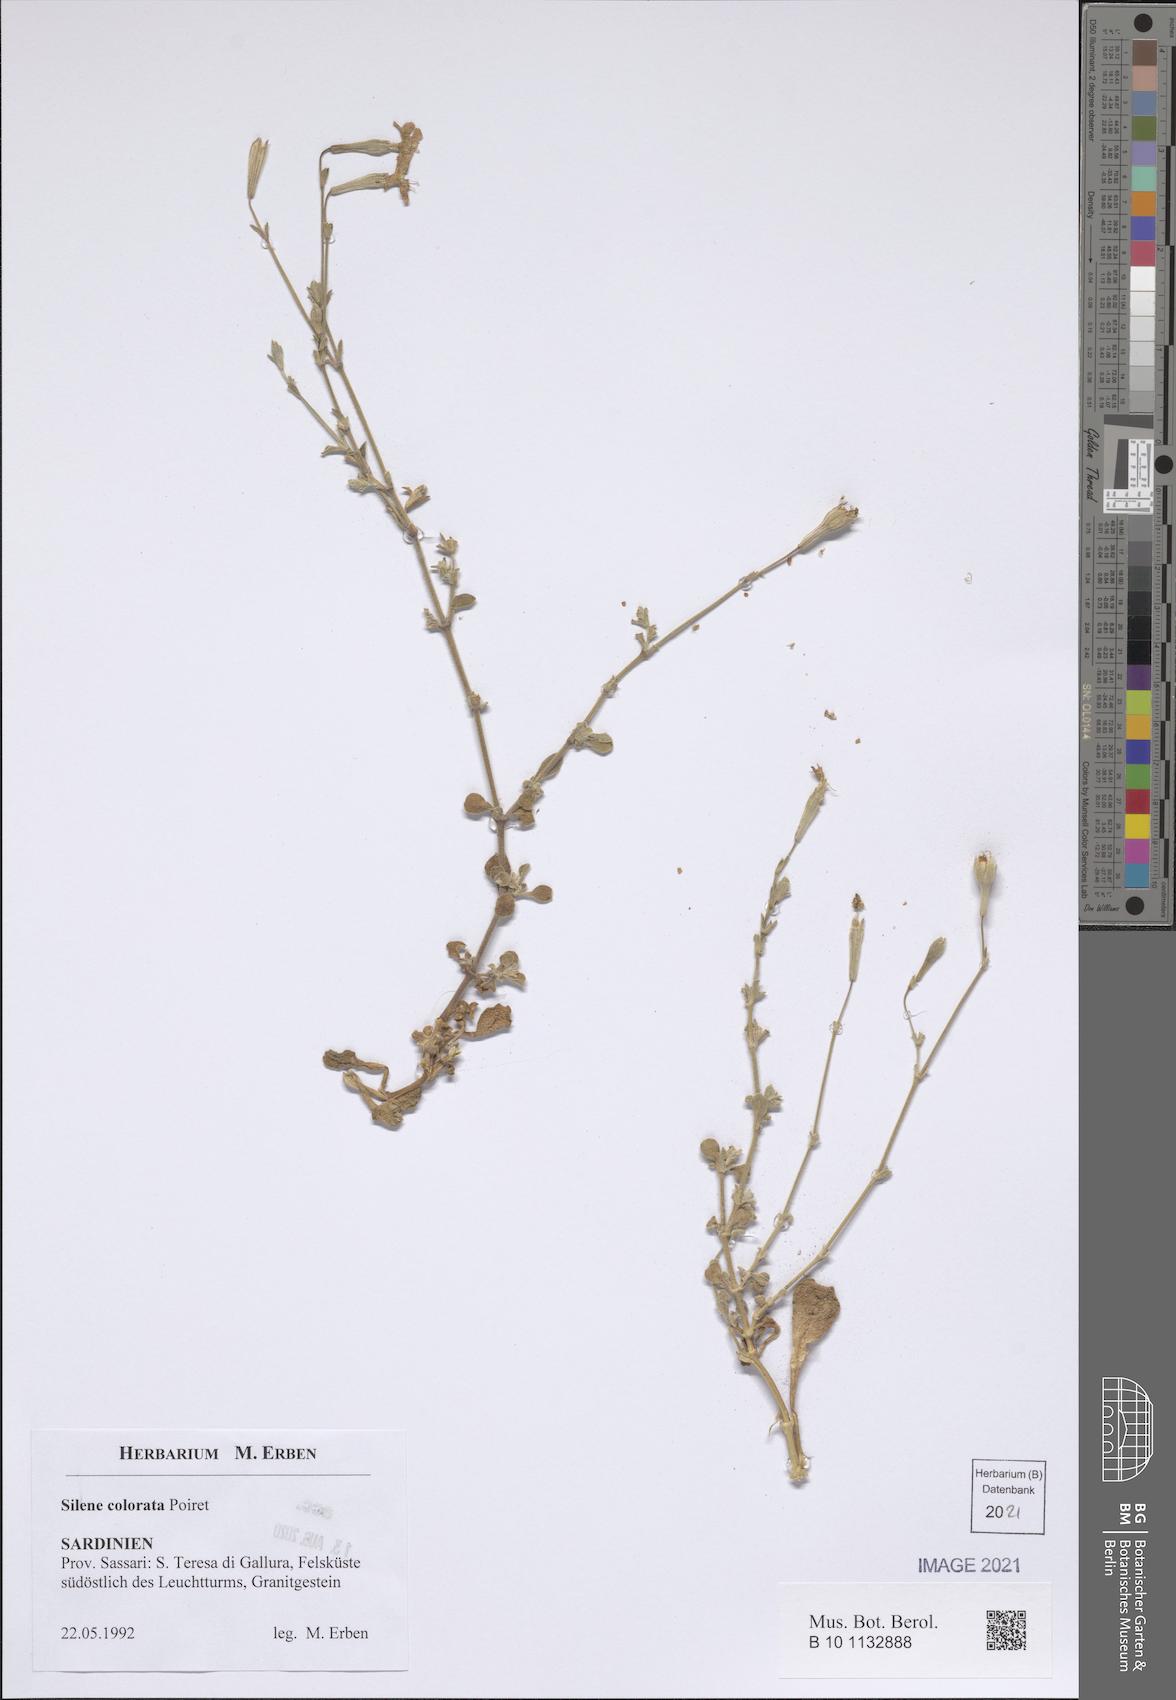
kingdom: Plantae
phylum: Tracheophyta
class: Magnoliopsida
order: Caryophyllales
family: Caryophyllaceae
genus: Silene
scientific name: Silene colorata
